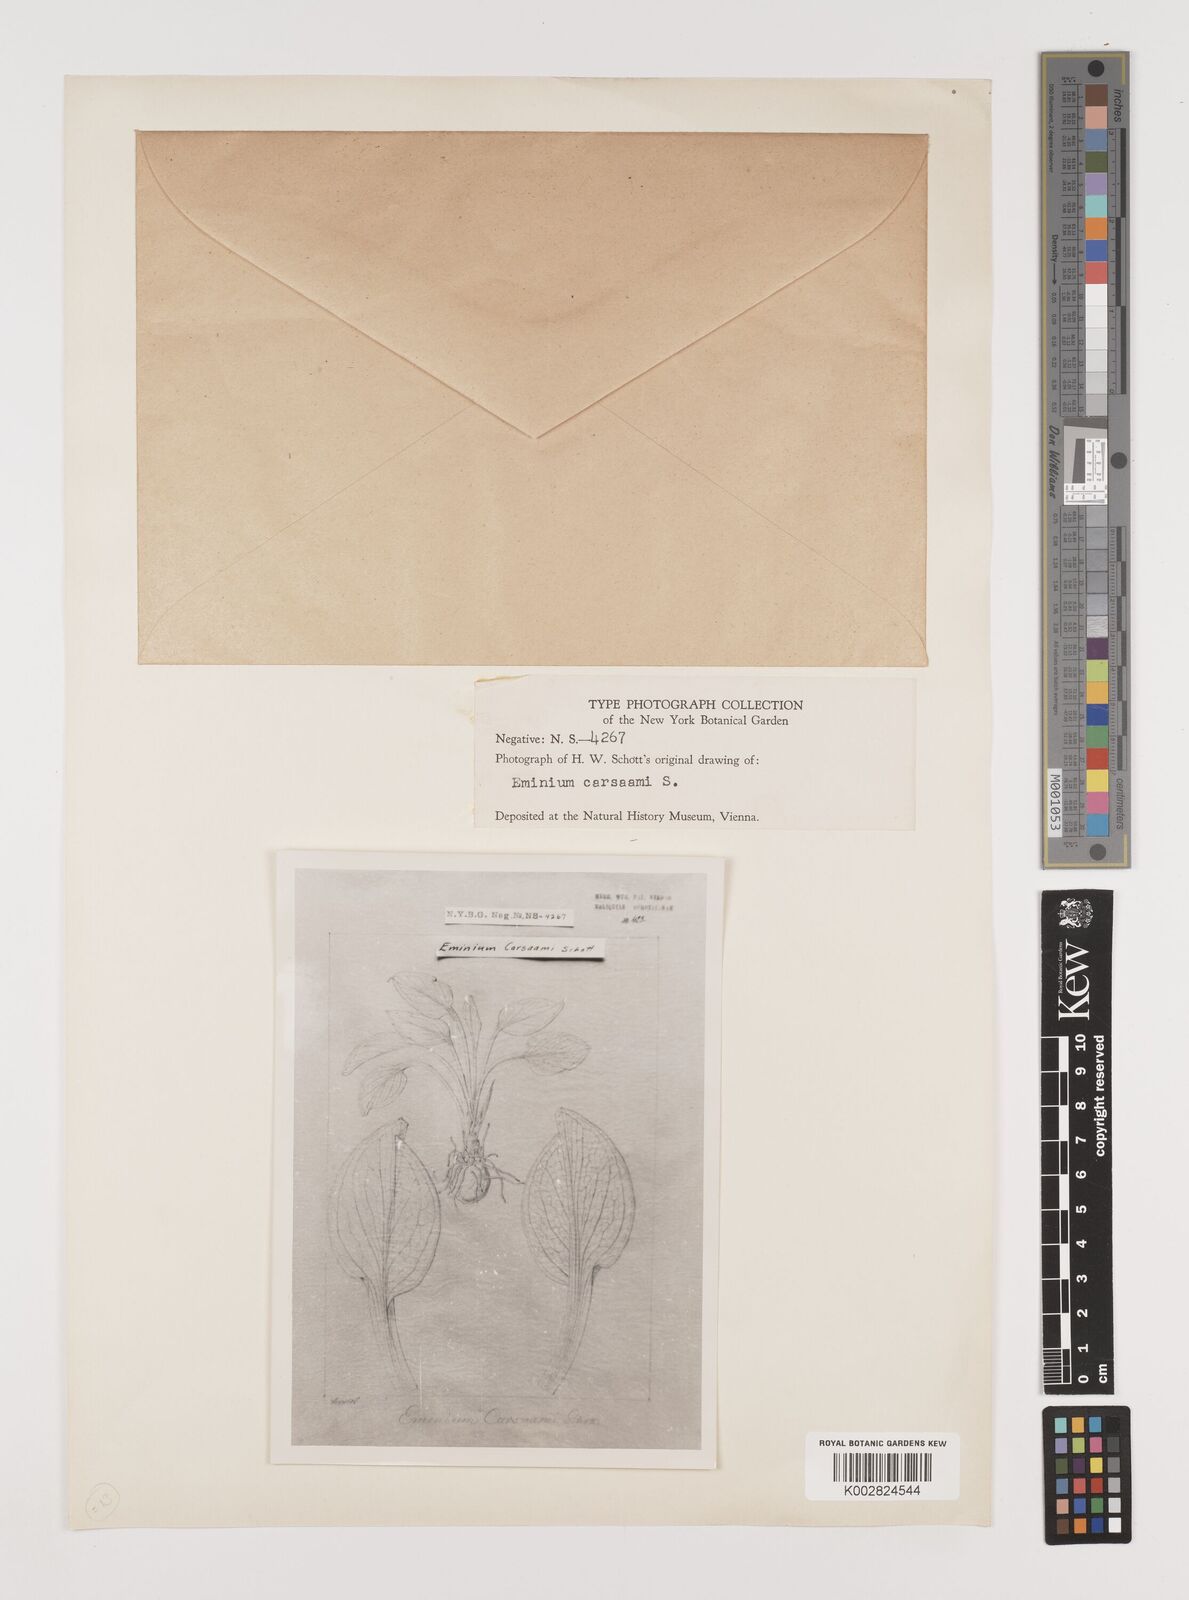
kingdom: Plantae
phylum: Tracheophyta
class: Liliopsida
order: Alismatales
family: Araceae
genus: Biarum
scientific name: Biarum crispulum
